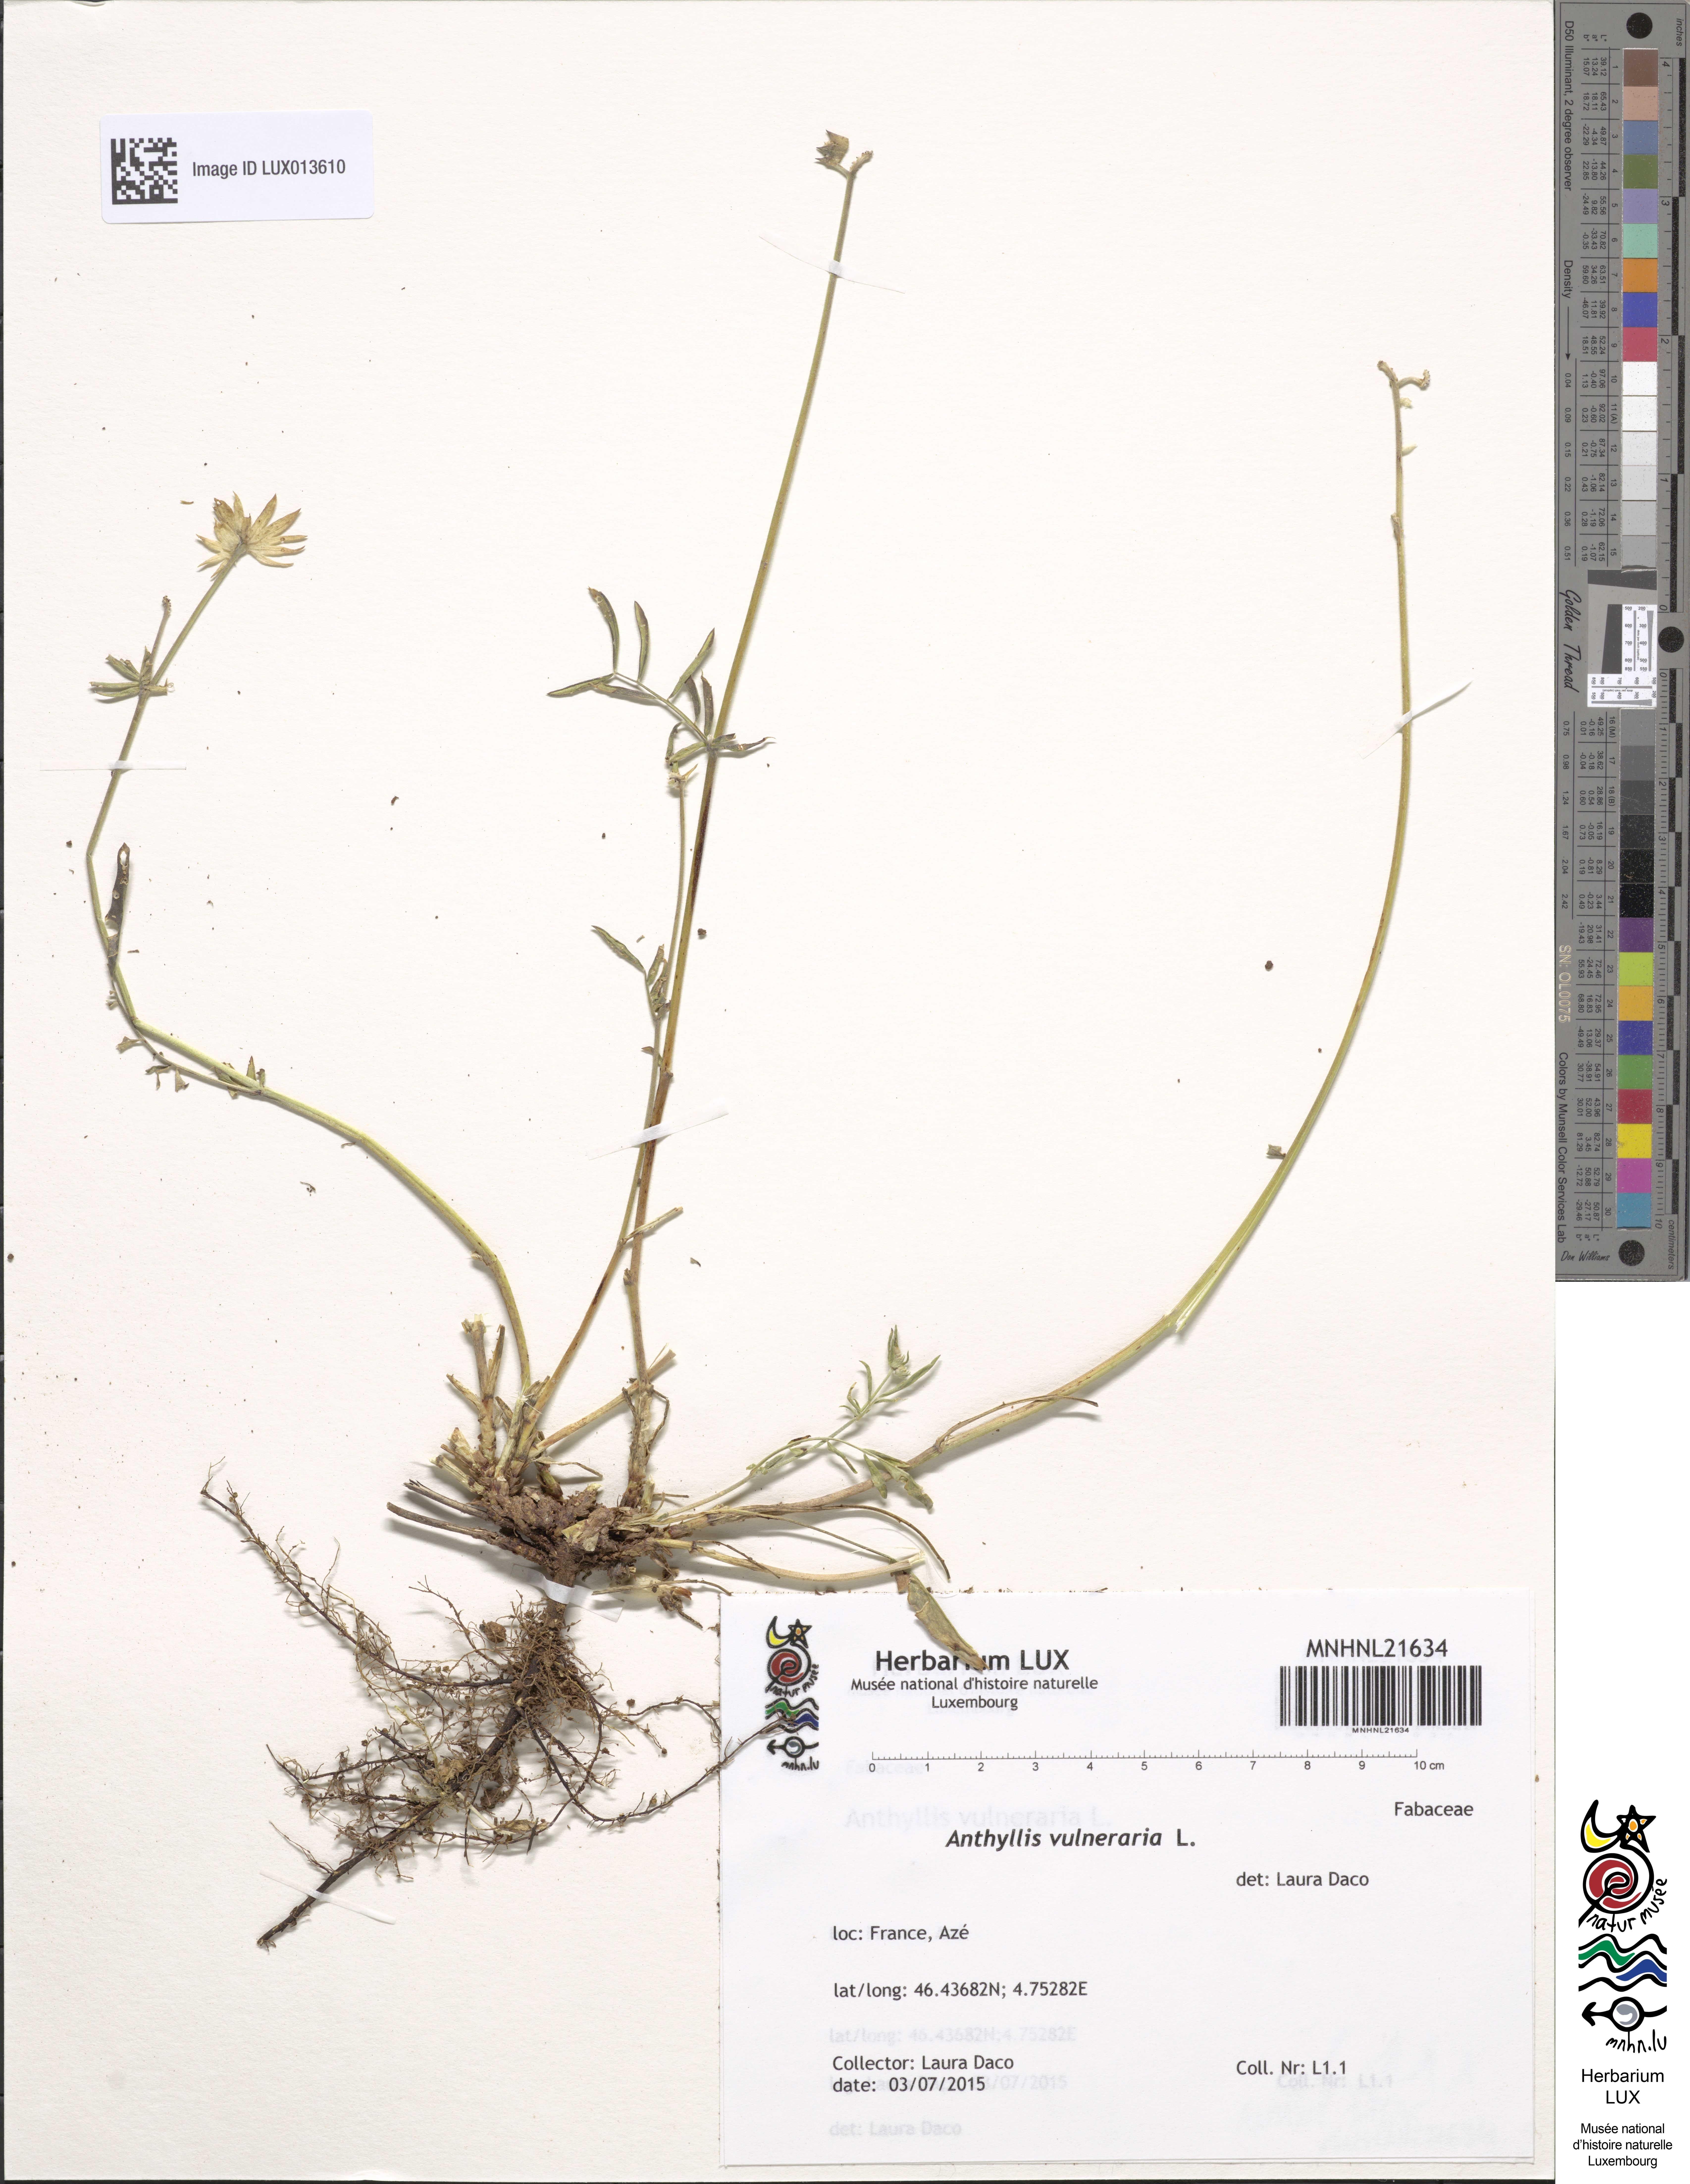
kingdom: Plantae
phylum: Tracheophyta
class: Magnoliopsida
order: Fabales
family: Fabaceae
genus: Anthyllis
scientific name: Anthyllis vulneraria
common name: Kidney vetch
